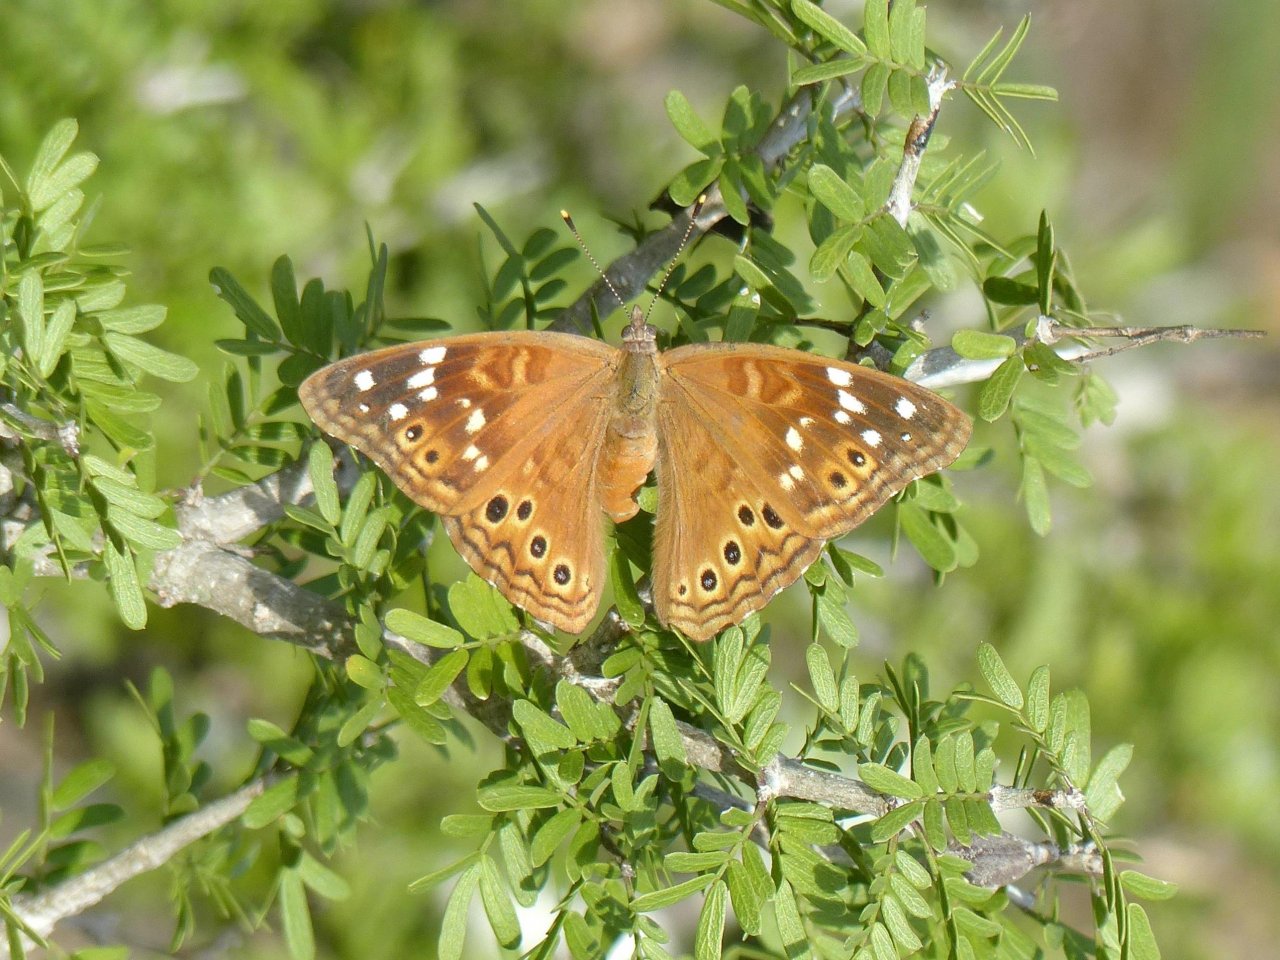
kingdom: Animalia
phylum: Arthropoda
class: Insecta
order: Lepidoptera
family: Nymphalidae
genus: Asterocampa
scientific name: Asterocampa leilia
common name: Empress Leilia
